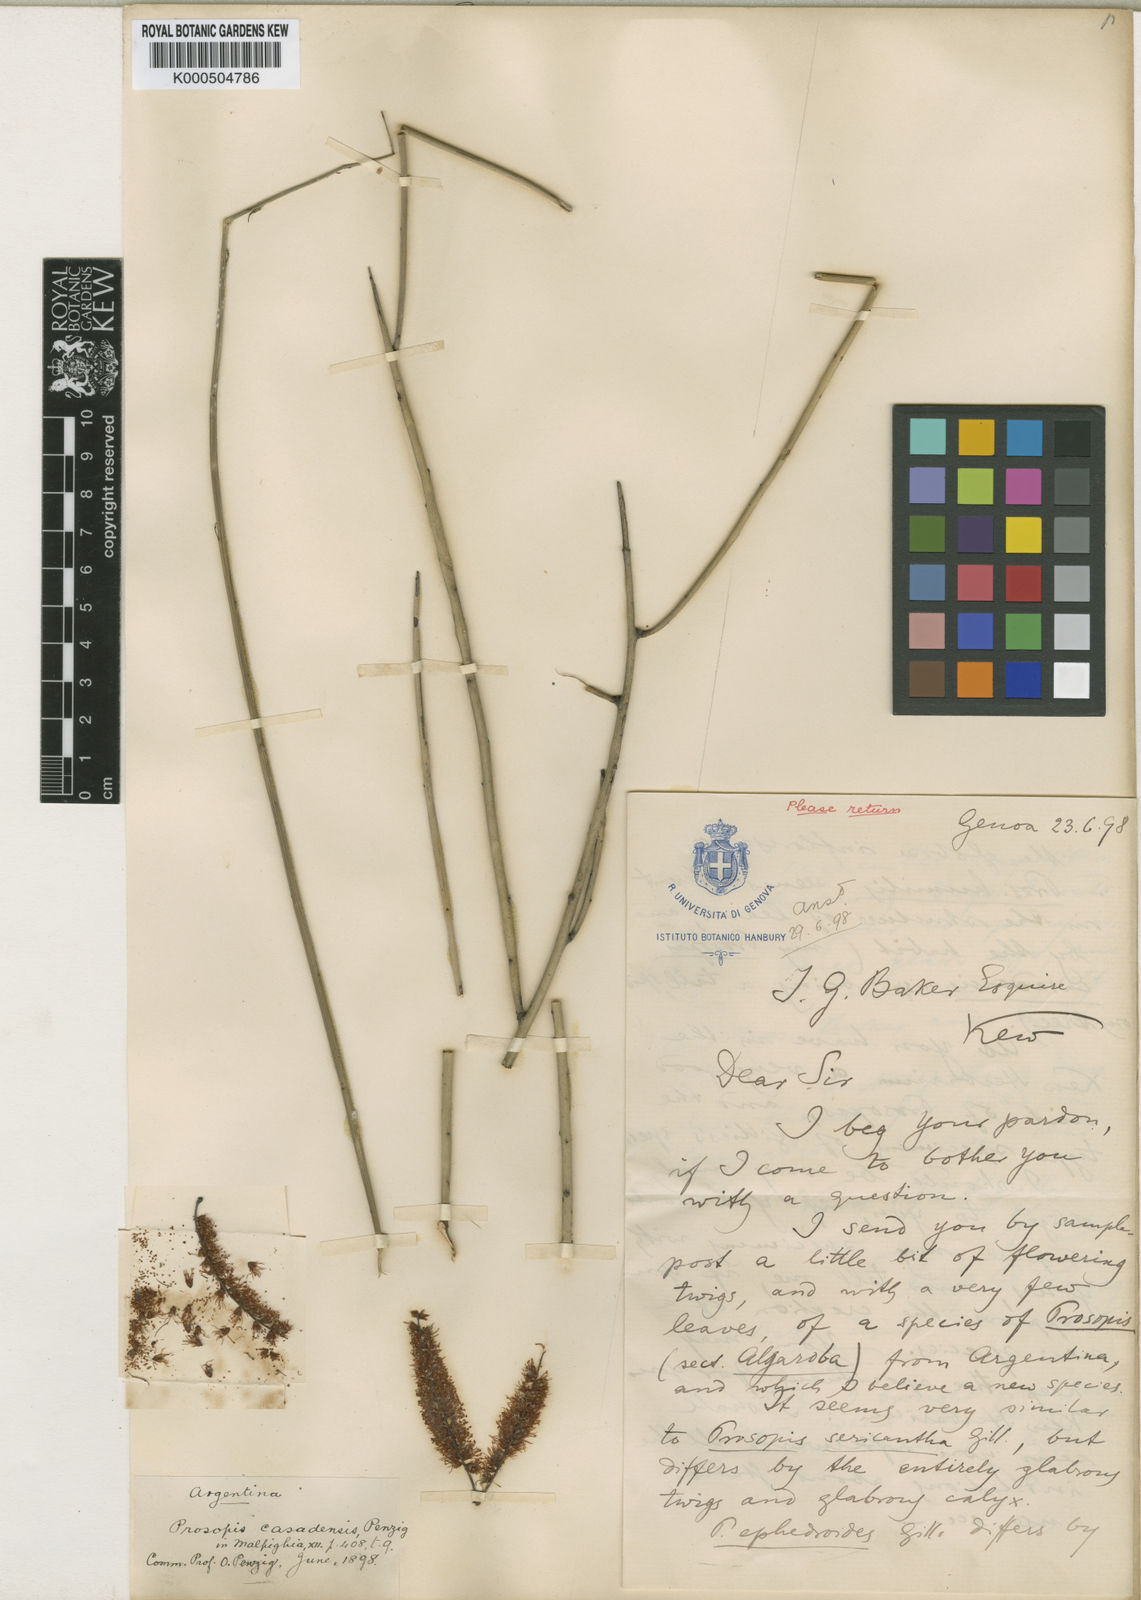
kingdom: Plantae
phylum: Tracheophyta
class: Magnoliopsida
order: Fabales
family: Fabaceae
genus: Prosopis
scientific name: Prosopis kuntzei
